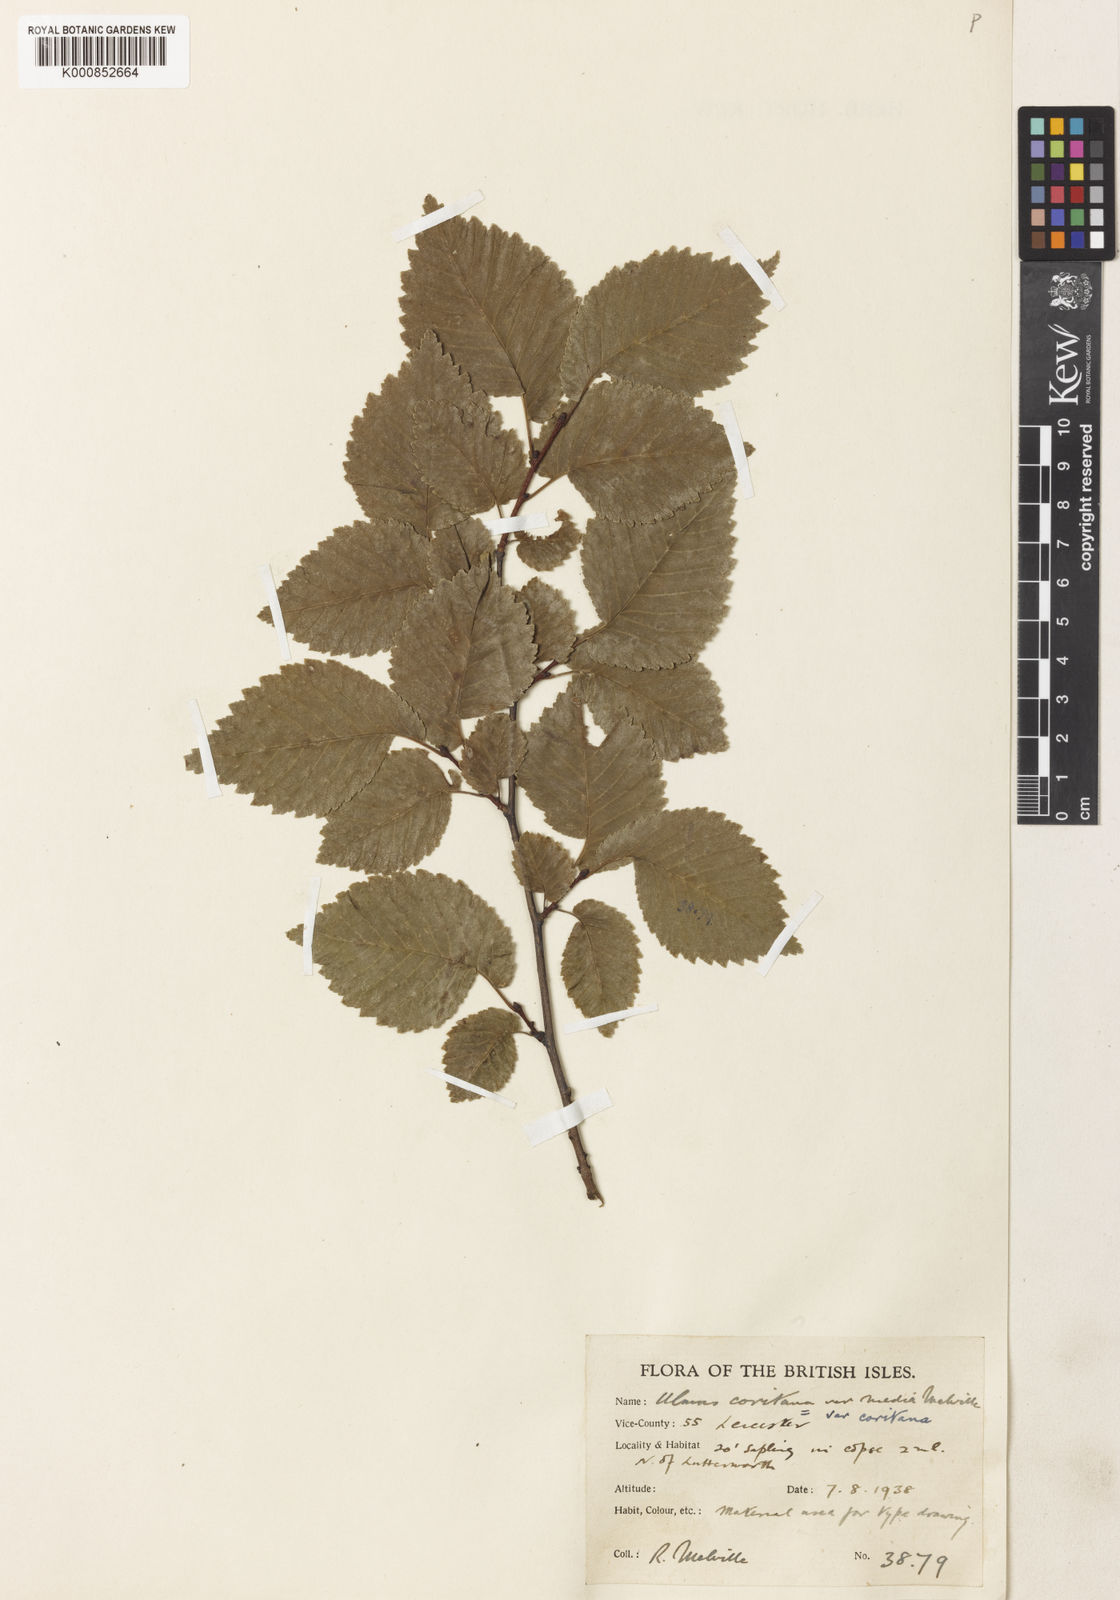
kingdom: Plantae
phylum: Tracheophyta
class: Magnoliopsida
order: Rosales
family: Ulmaceae
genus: Ulmus
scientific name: Ulmus minor
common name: Small-leaved elm
